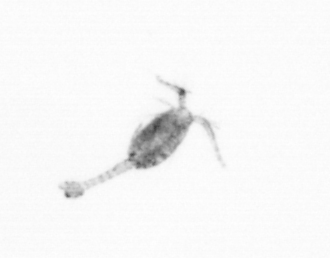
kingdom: Animalia
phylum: Arthropoda
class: Copepoda
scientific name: Copepoda
